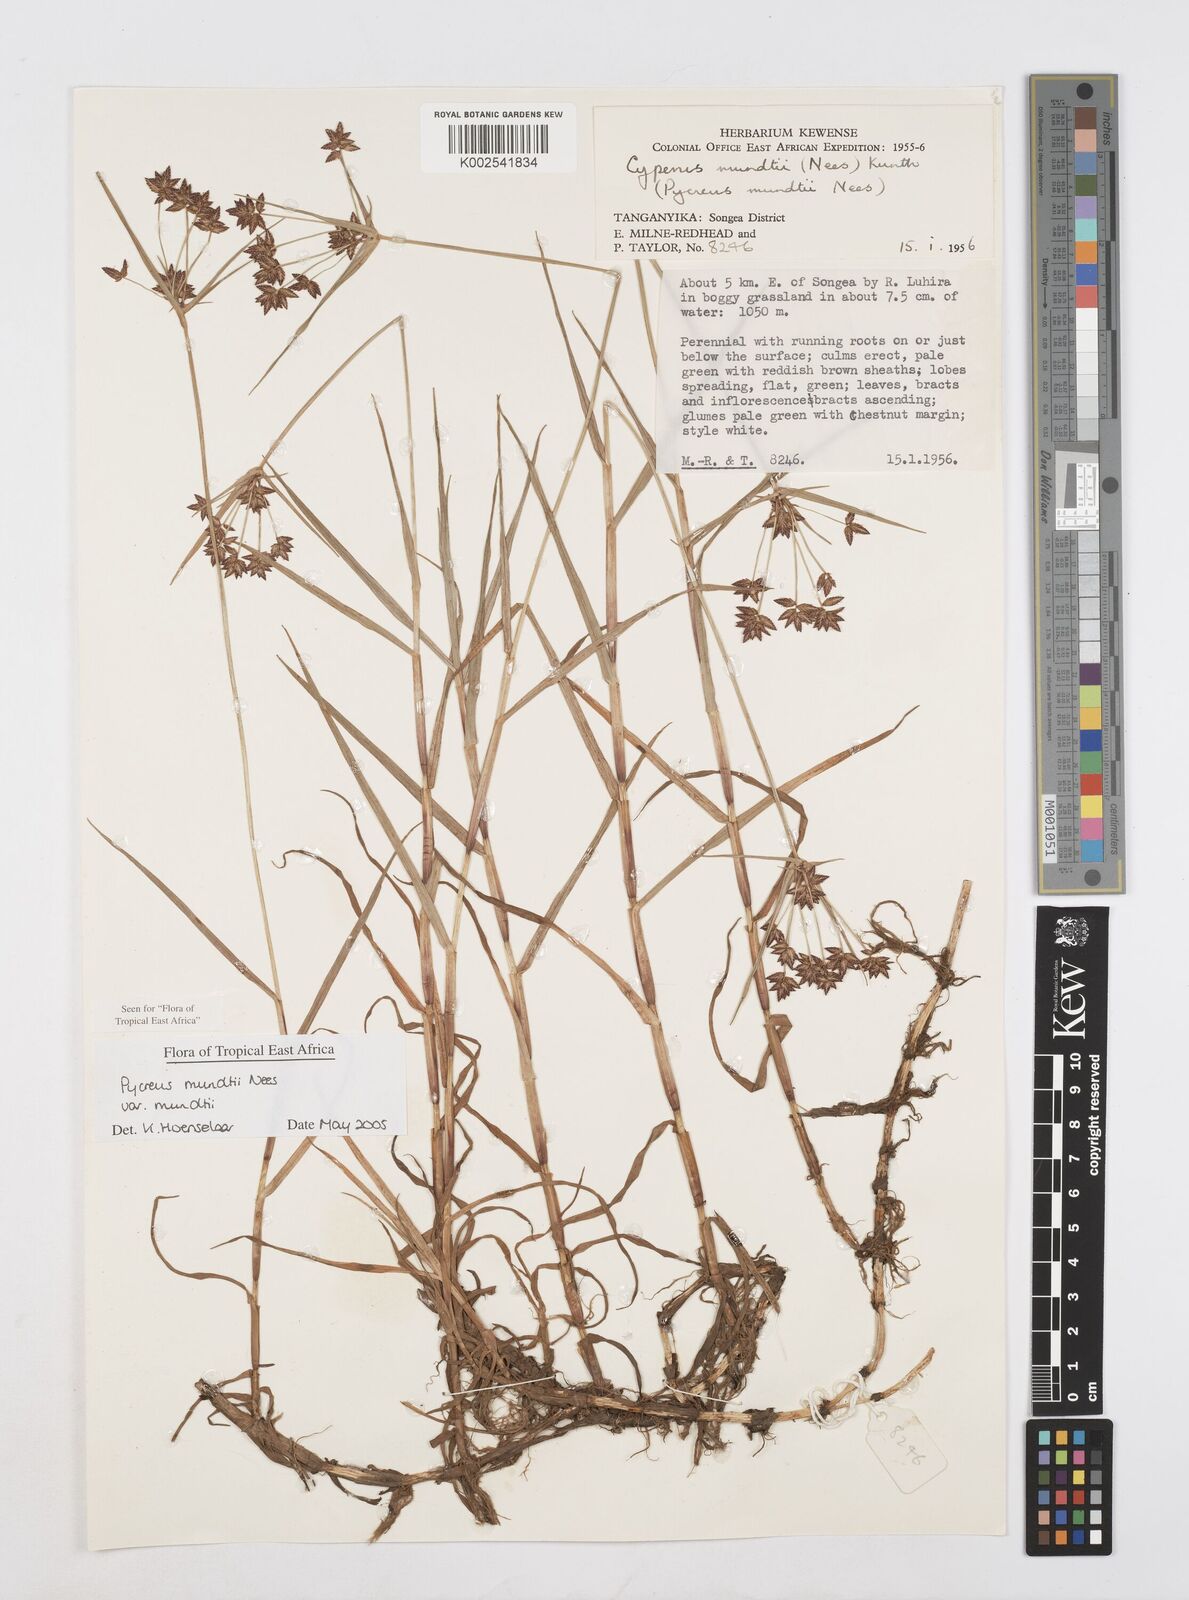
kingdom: Plantae
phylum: Tracheophyta
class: Liliopsida
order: Poales
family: Cyperaceae
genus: Cyperus
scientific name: Cyperus mundii
